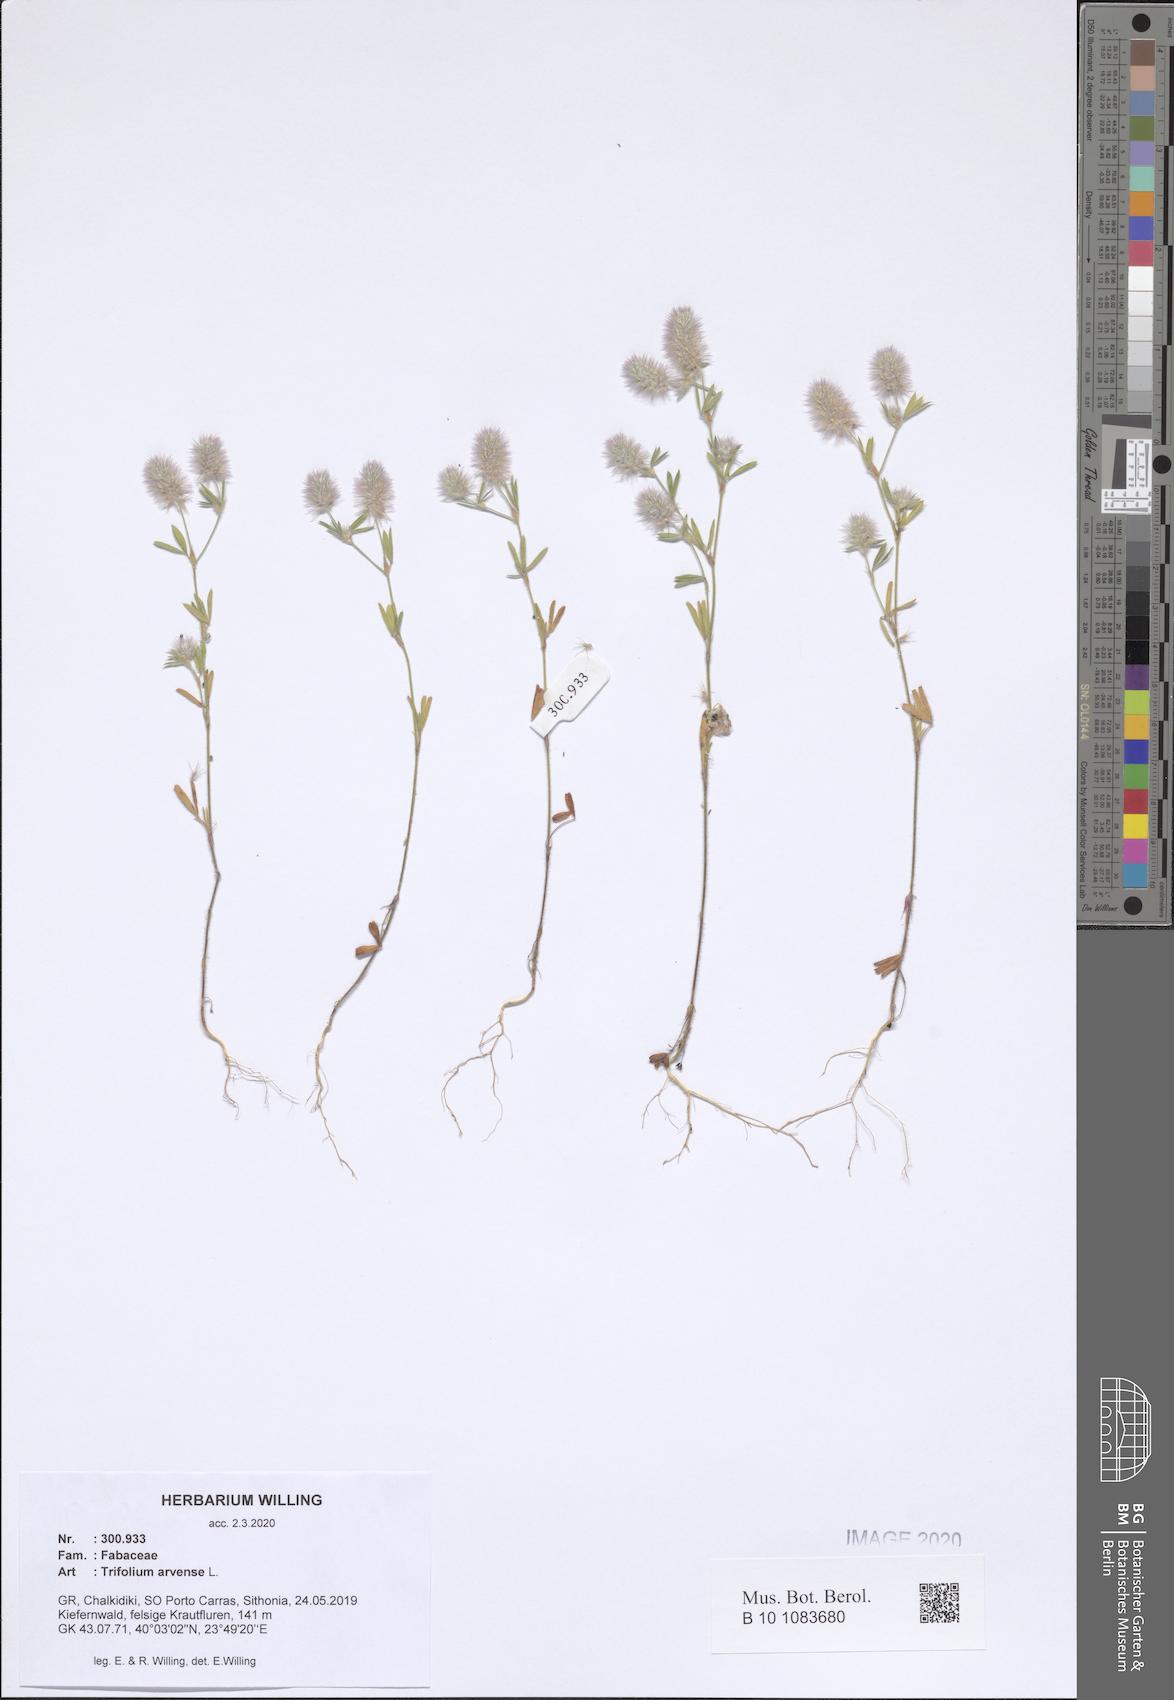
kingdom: Plantae
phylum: Tracheophyta
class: Magnoliopsida
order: Fabales
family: Fabaceae
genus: Trifolium
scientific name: Trifolium arvense
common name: Hare's-foot clover
